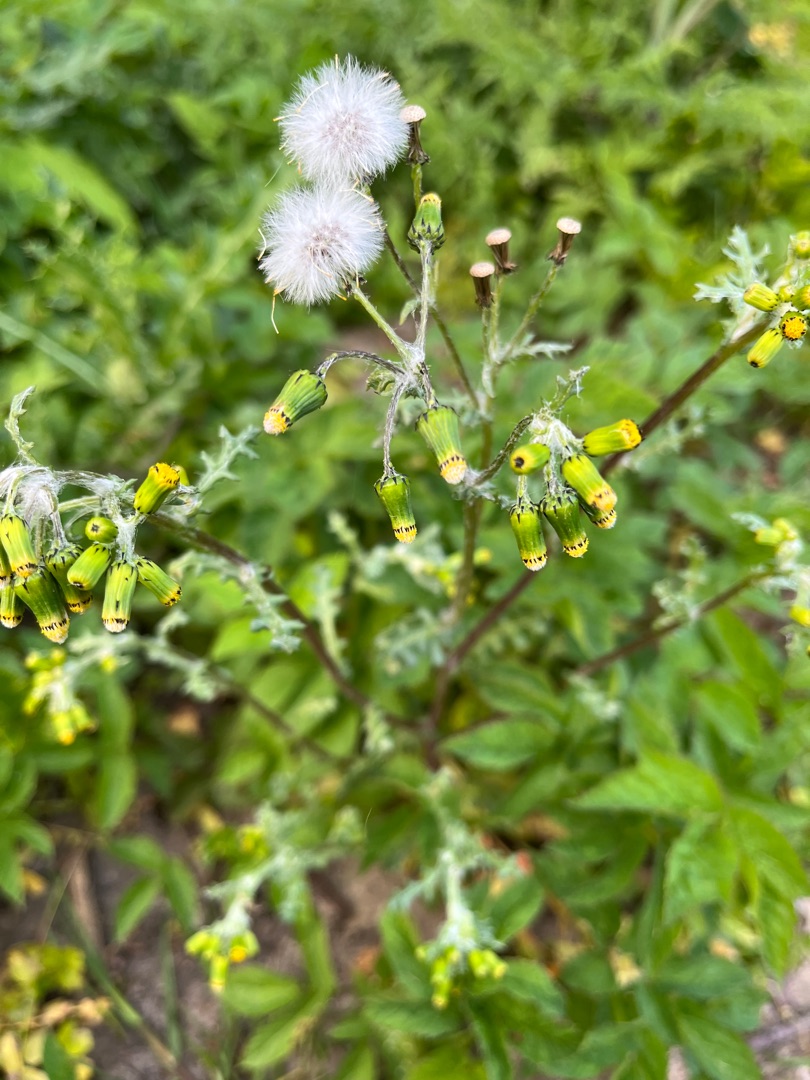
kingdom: Plantae
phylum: Tracheophyta
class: Magnoliopsida
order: Asterales
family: Asteraceae
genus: Senecio
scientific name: Senecio vulgaris
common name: Almindelig brandbæger
